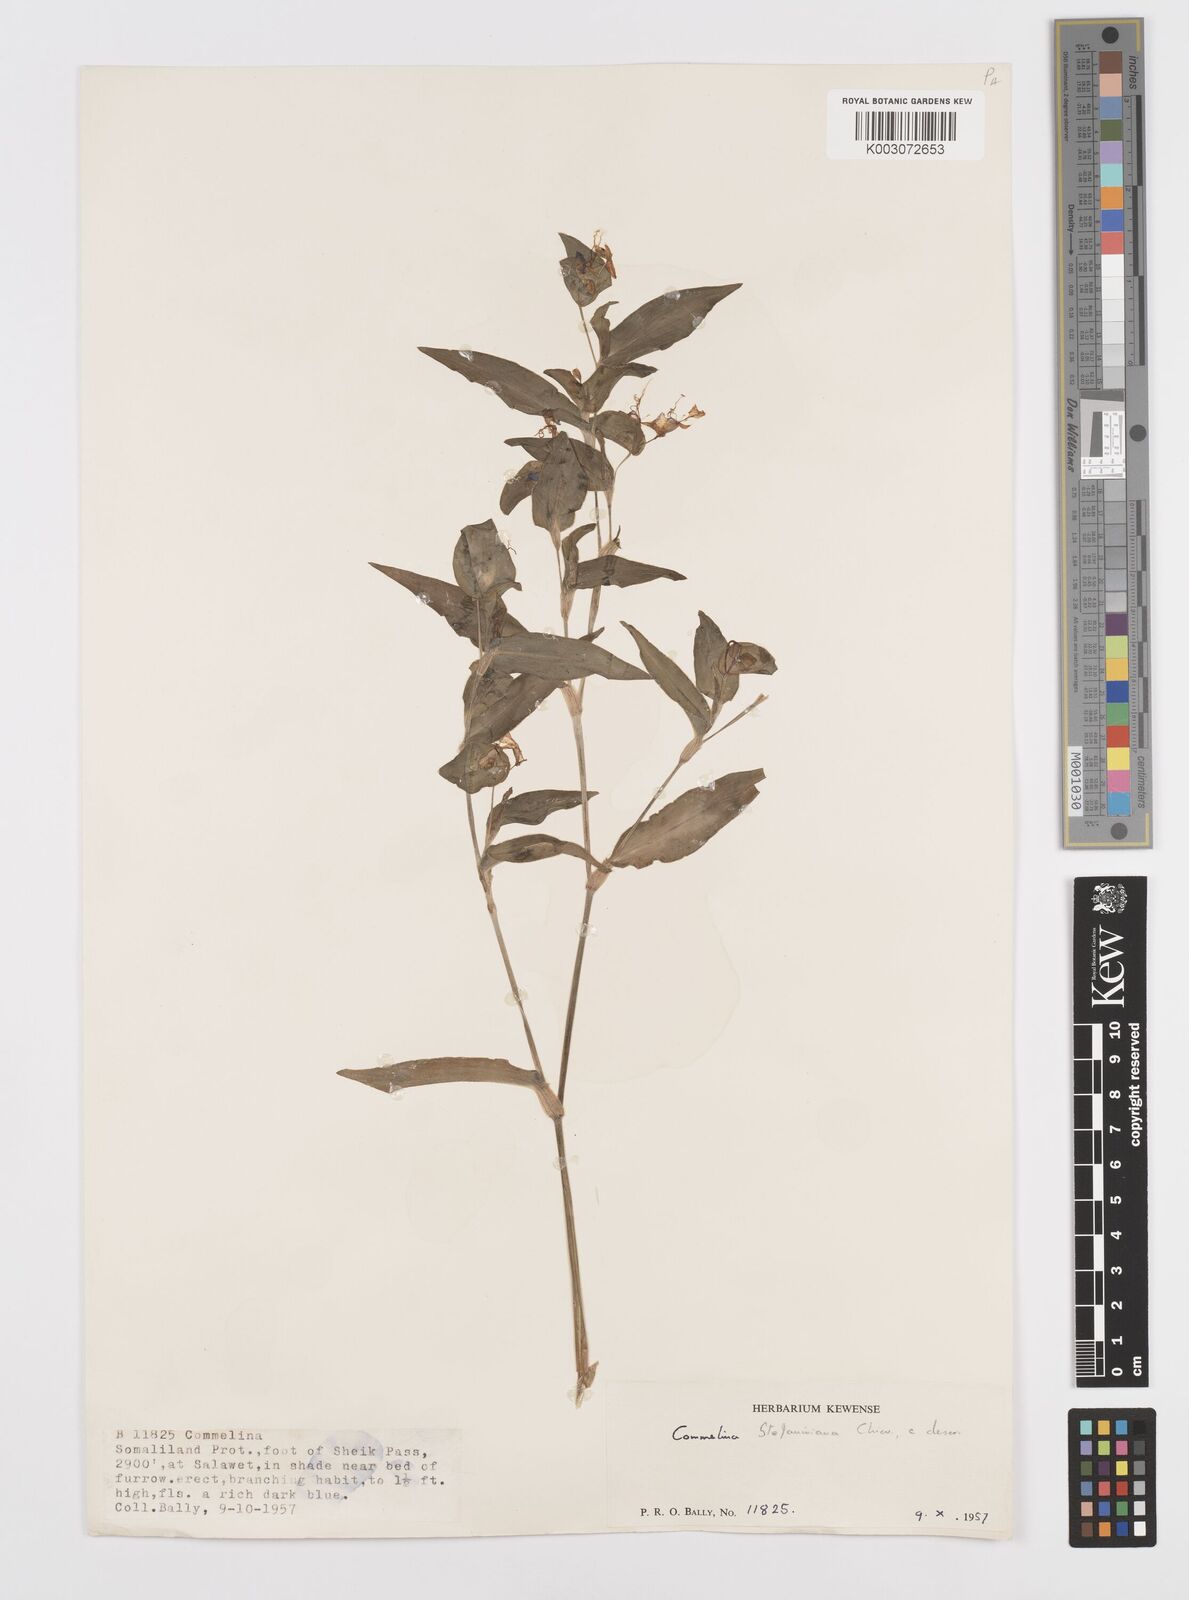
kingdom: Plantae
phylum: Tracheophyta
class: Liliopsida
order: Commelinales
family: Commelinaceae
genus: Commelina
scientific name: Commelina stefaniniana
